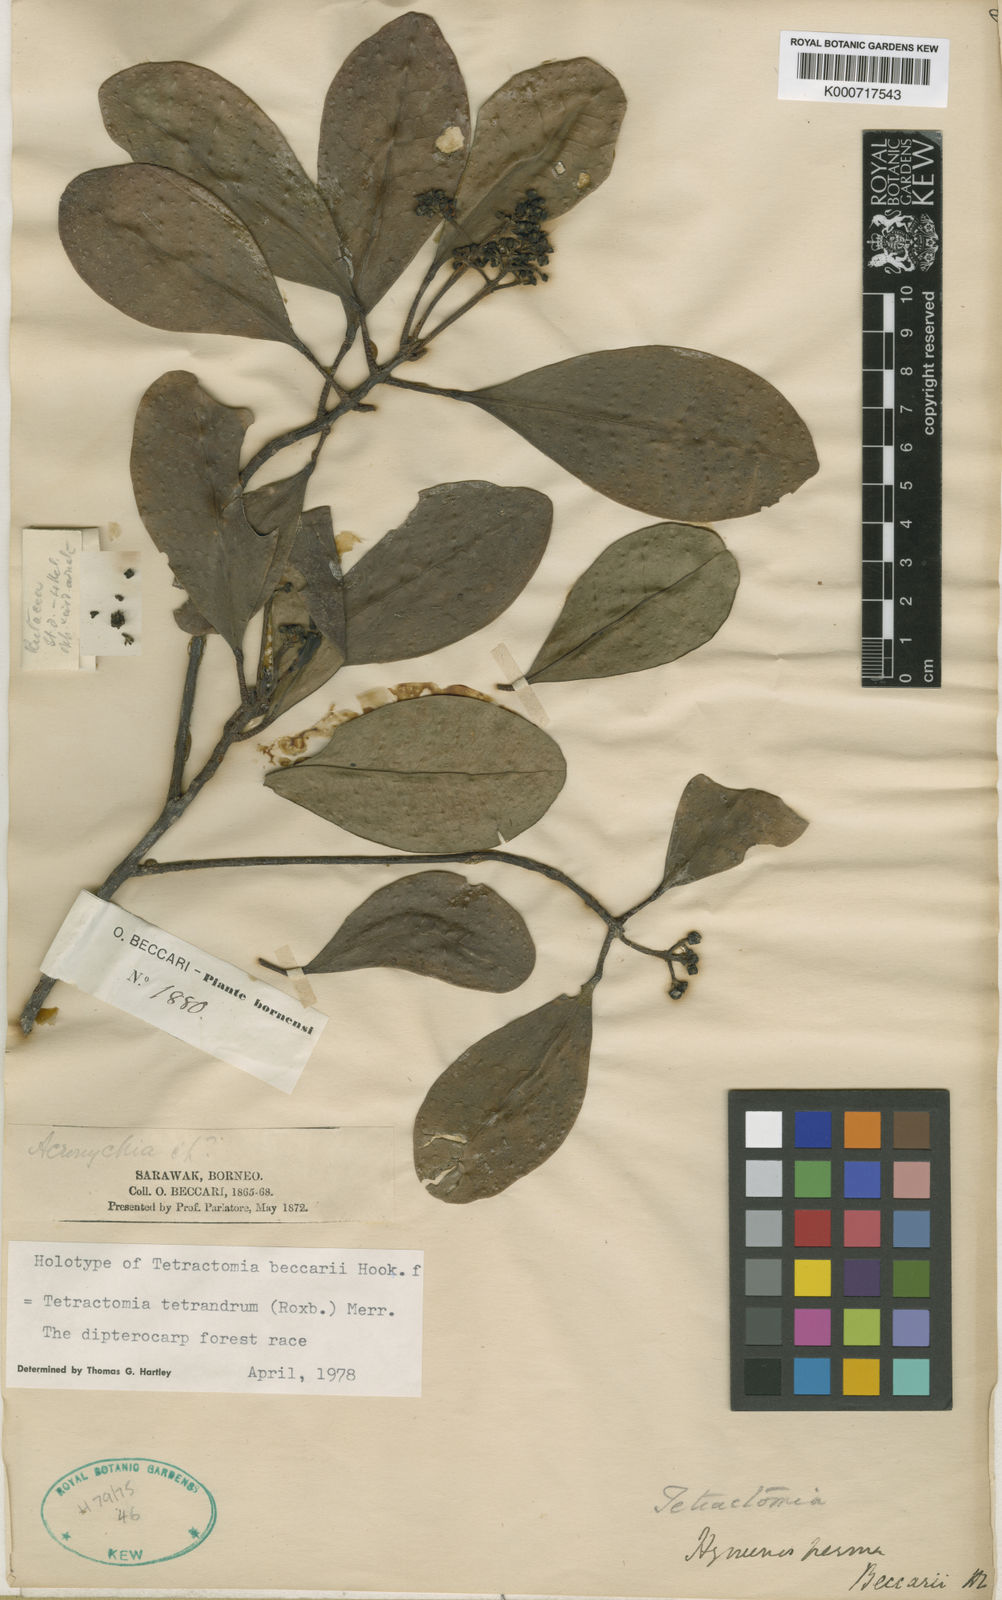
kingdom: Plantae
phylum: Tracheophyta
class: Magnoliopsida
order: Sapindales
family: Rutaceae
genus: Tetractomia
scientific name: Tetractomia tetrandra
